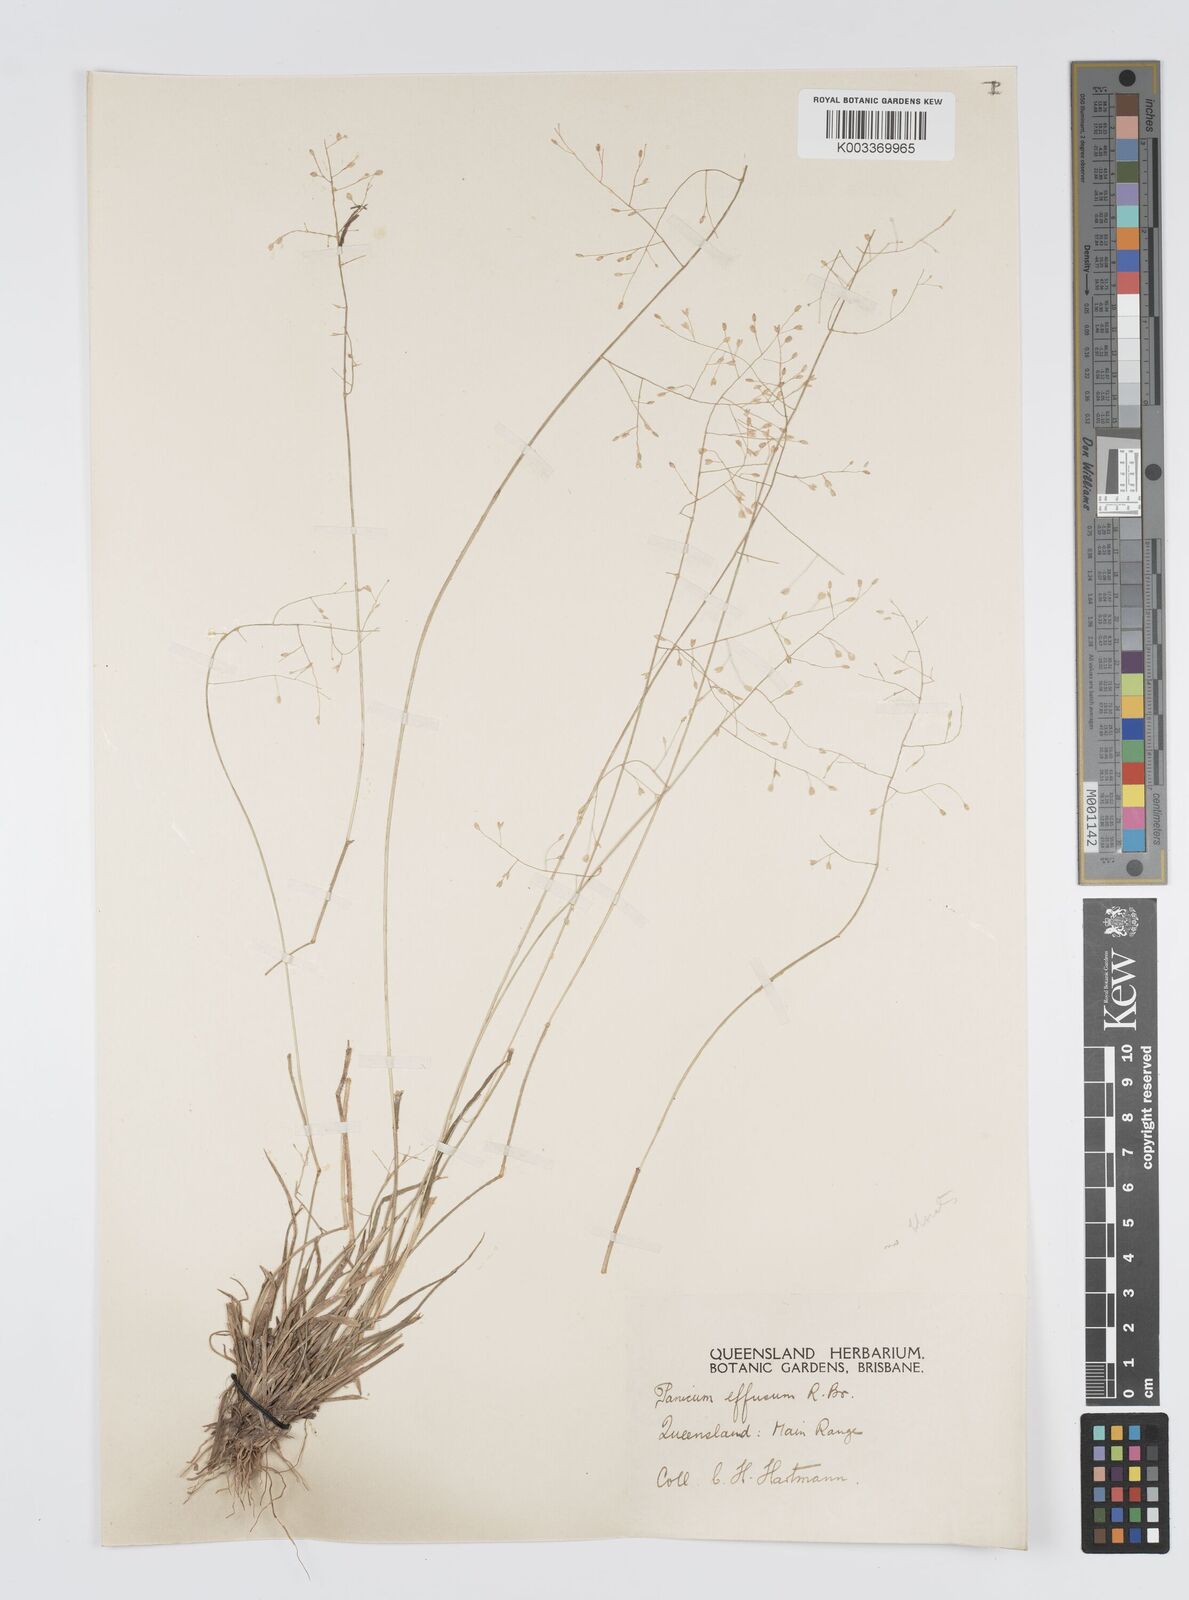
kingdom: Plantae
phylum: Tracheophyta
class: Liliopsida
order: Poales
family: Poaceae
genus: Panicum
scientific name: Panicum effusum
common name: Hairy panic grass
